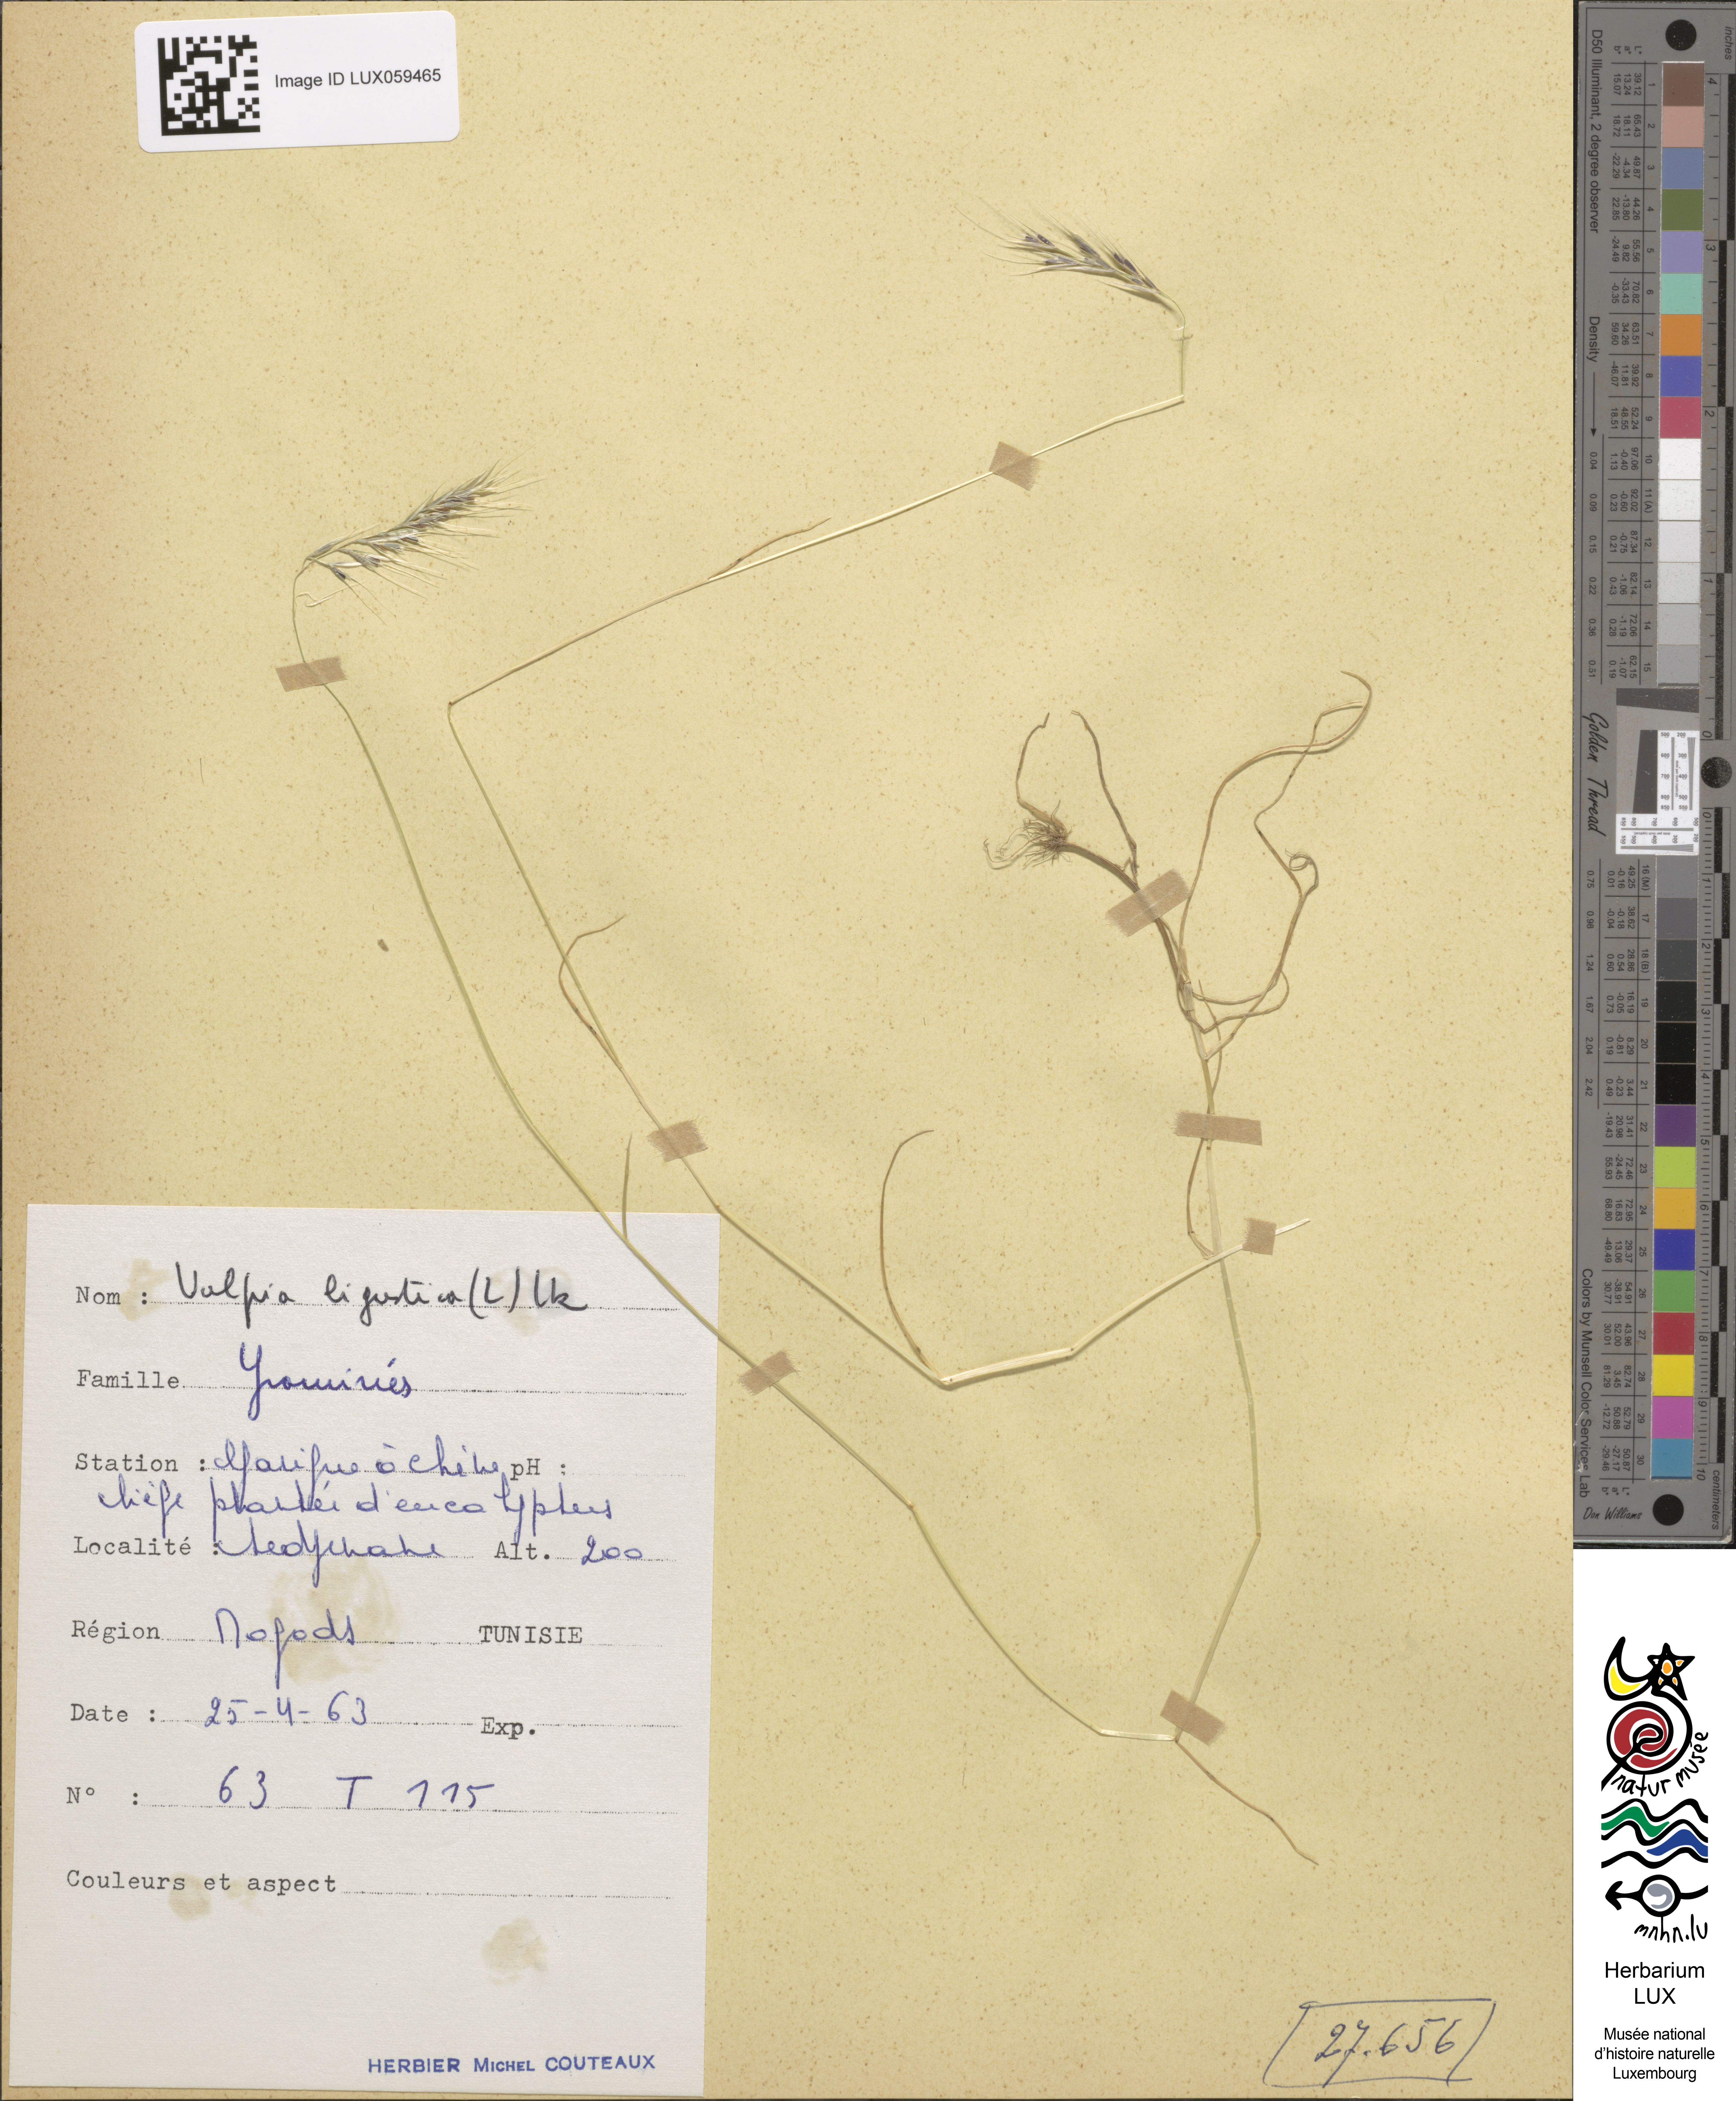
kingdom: Plantae
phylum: Tracheophyta
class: Liliopsida
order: Poales
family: Poaceae
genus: Festuca
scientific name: Festuca ligustica
